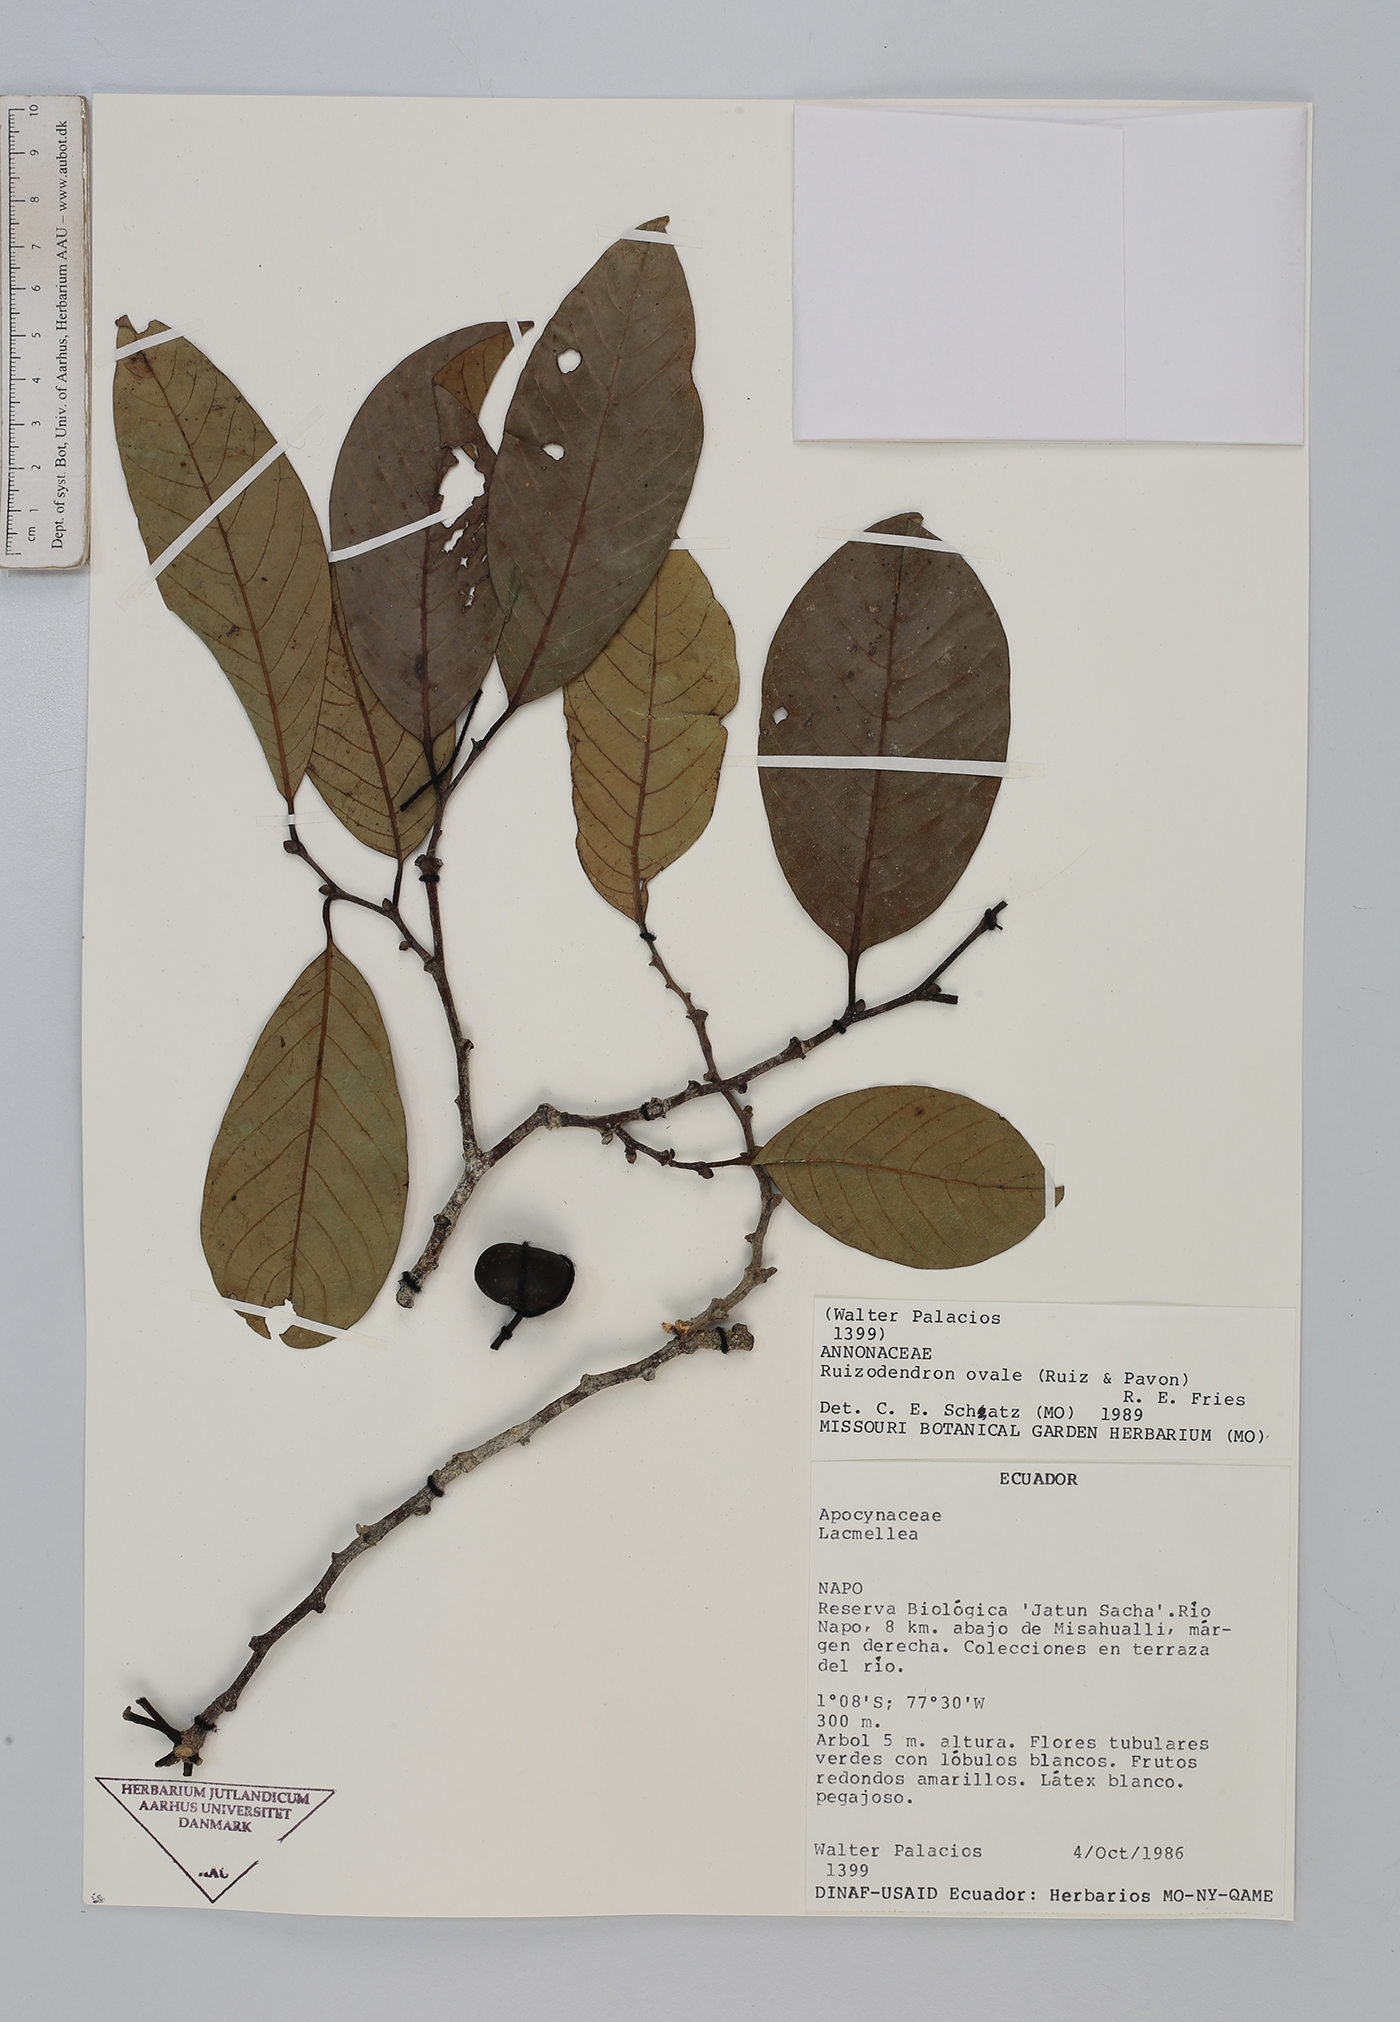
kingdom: Plantae
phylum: Tracheophyta
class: Magnoliopsida
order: Magnoliales
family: Annonaceae
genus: Ruizodendron
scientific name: Ruizodendron ovale
